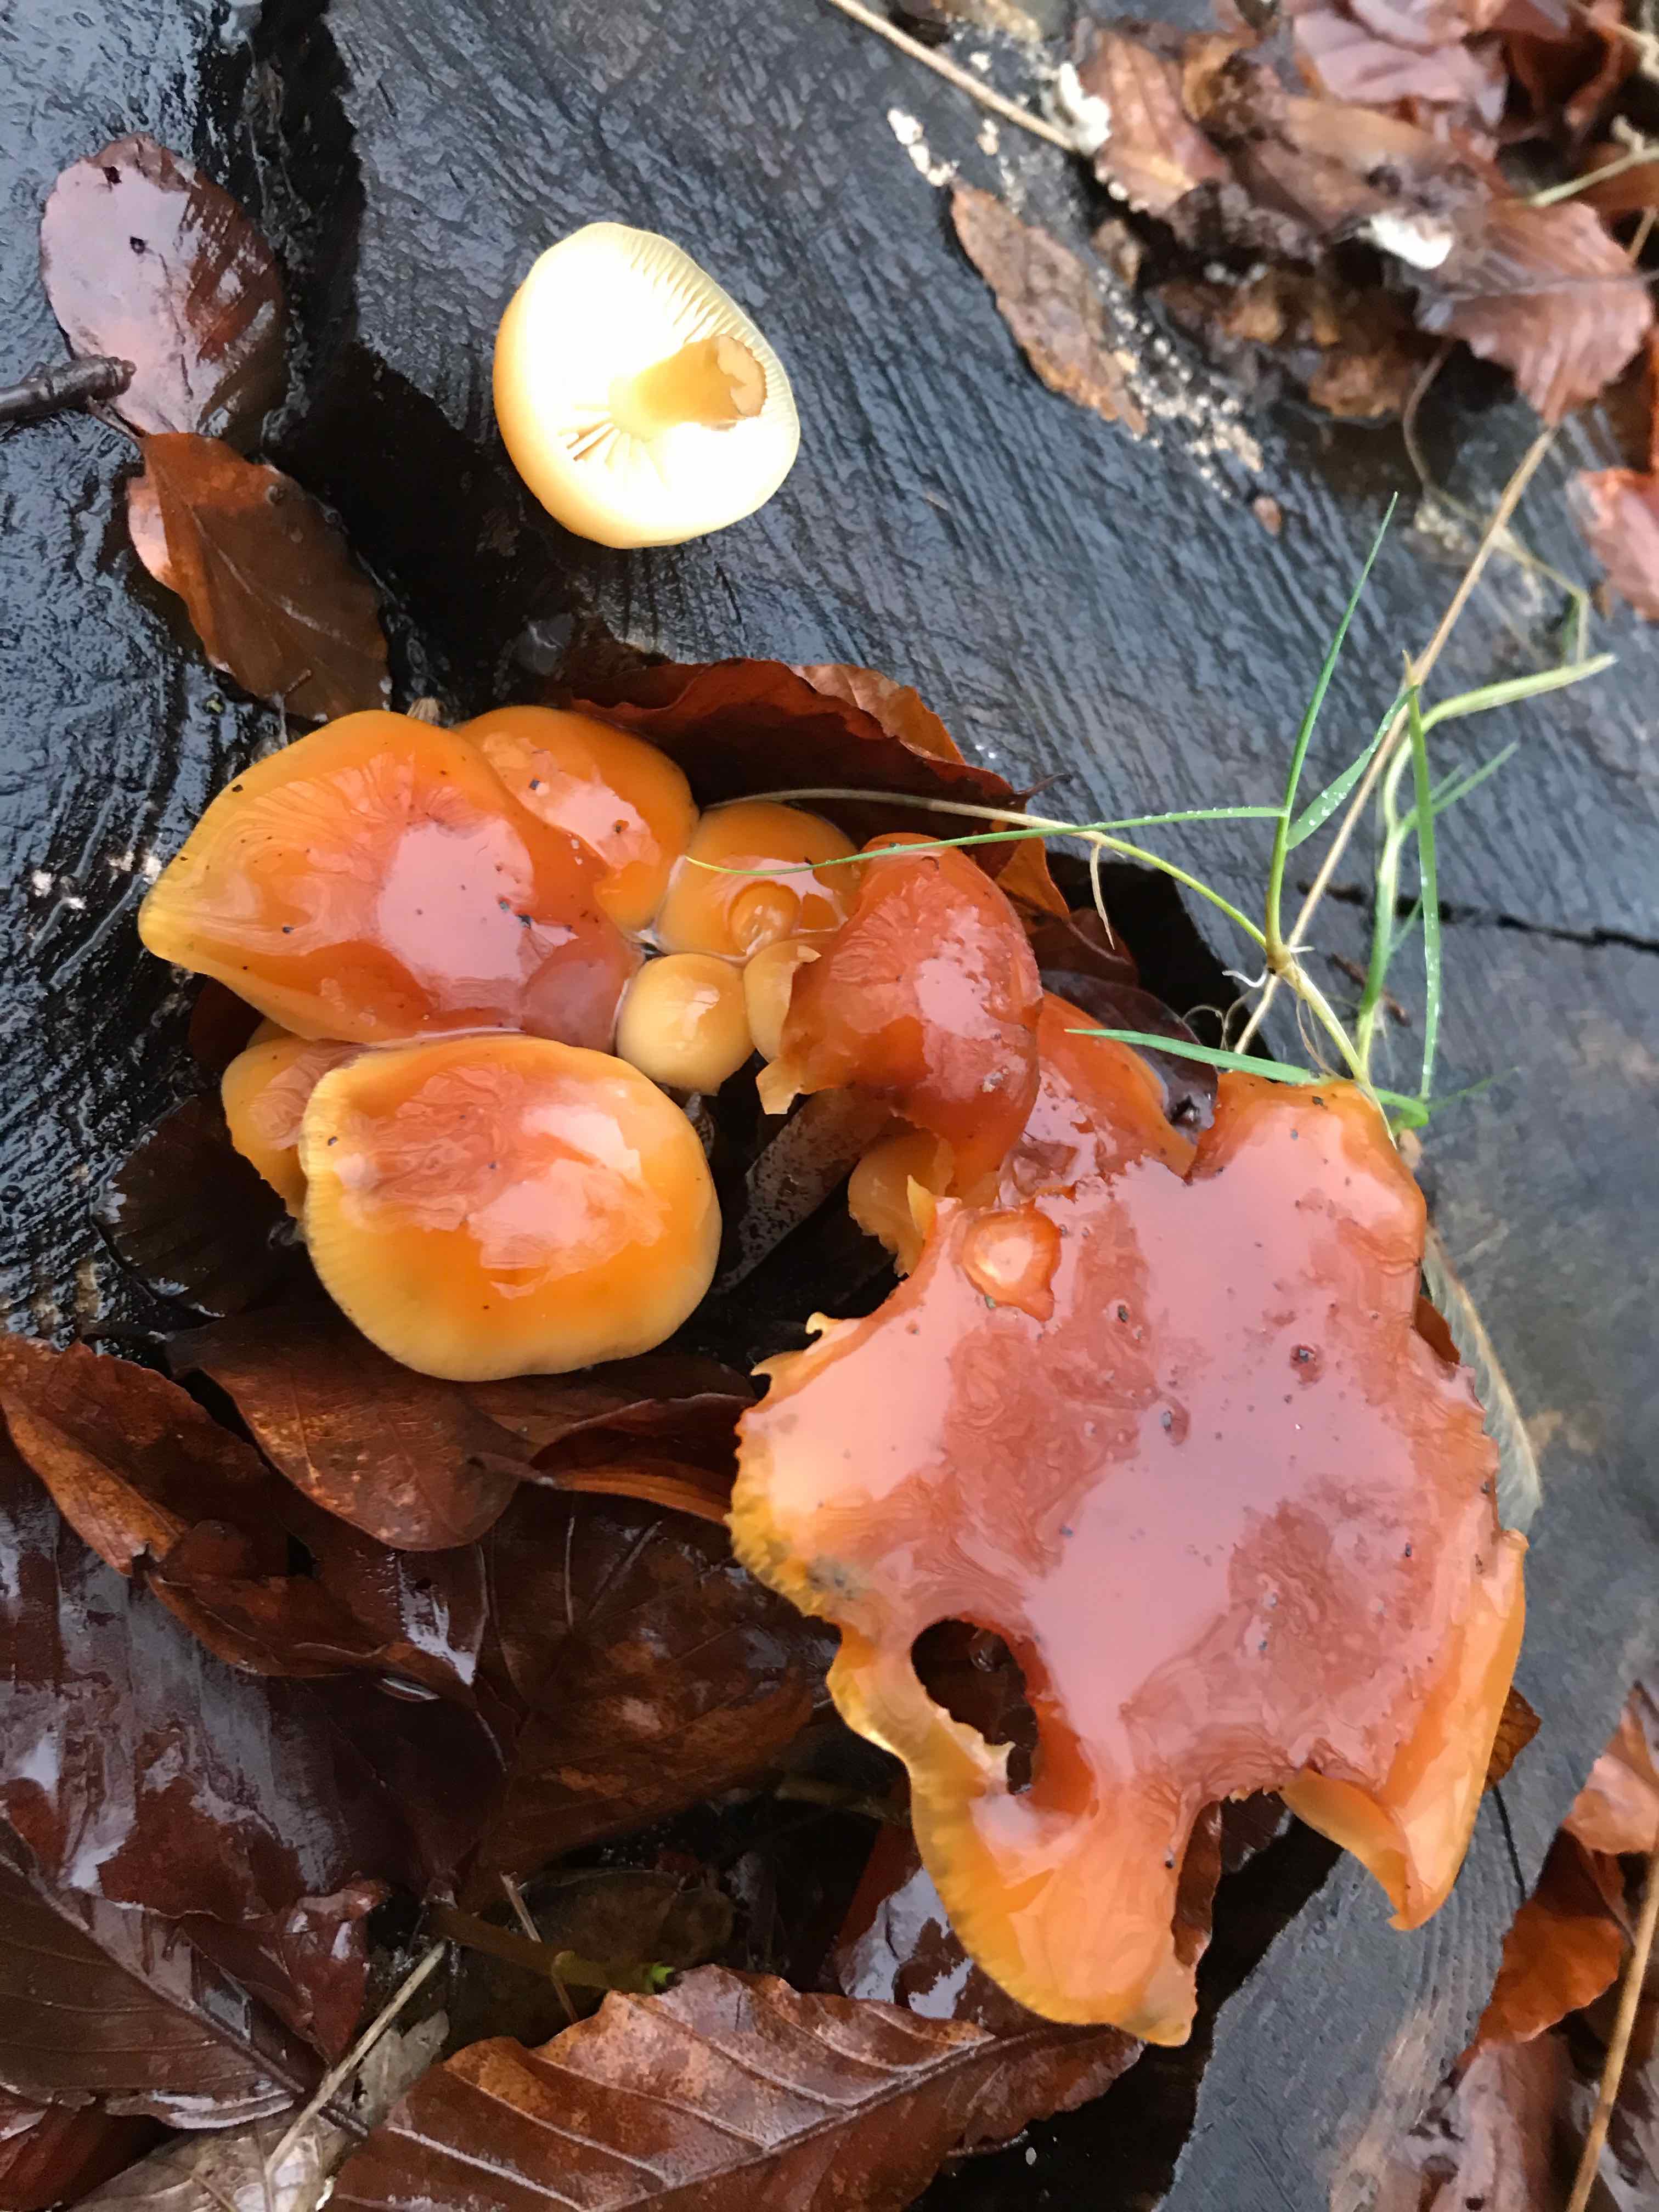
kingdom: Fungi
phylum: Basidiomycota
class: Agaricomycetes
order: Agaricales
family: Physalacriaceae
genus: Flammulina
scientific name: Flammulina velutipes
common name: gul fløjlsfod
